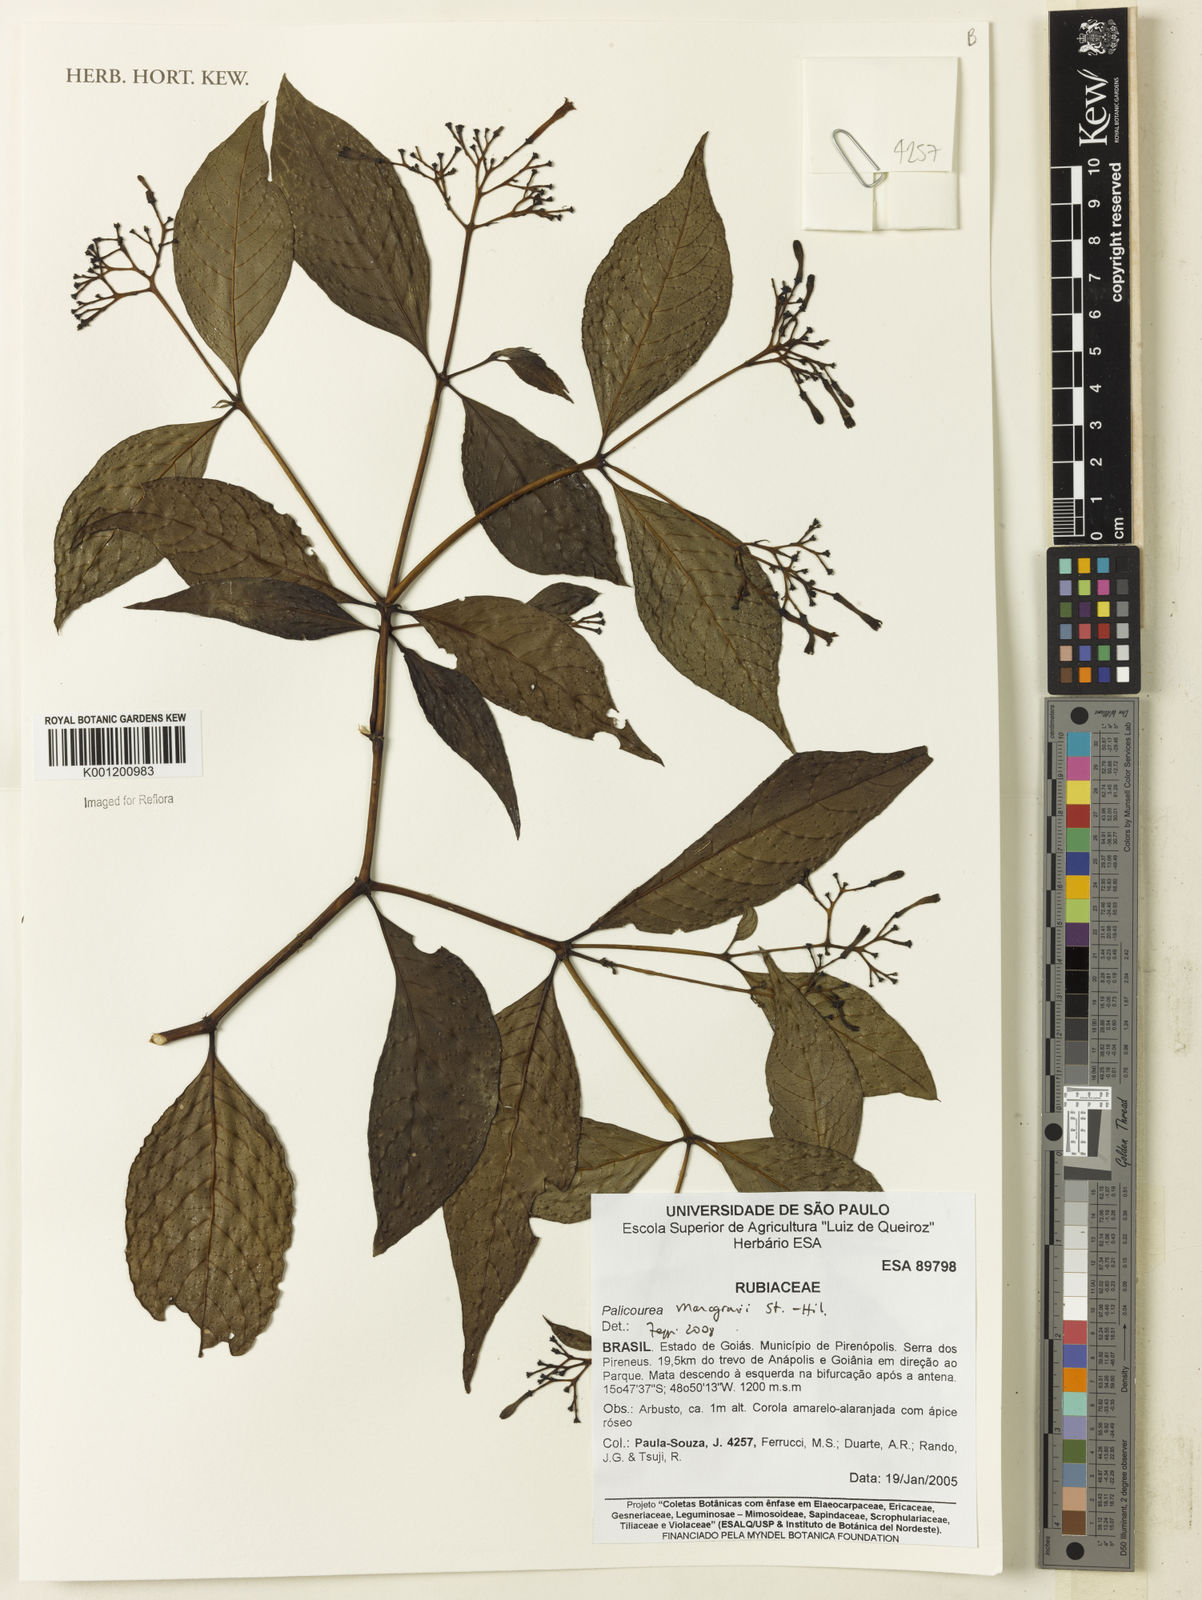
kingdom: Plantae
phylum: Tracheophyta
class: Magnoliopsida
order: Gentianales
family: Rubiaceae
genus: Palicourea
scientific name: Palicourea marcgravii
